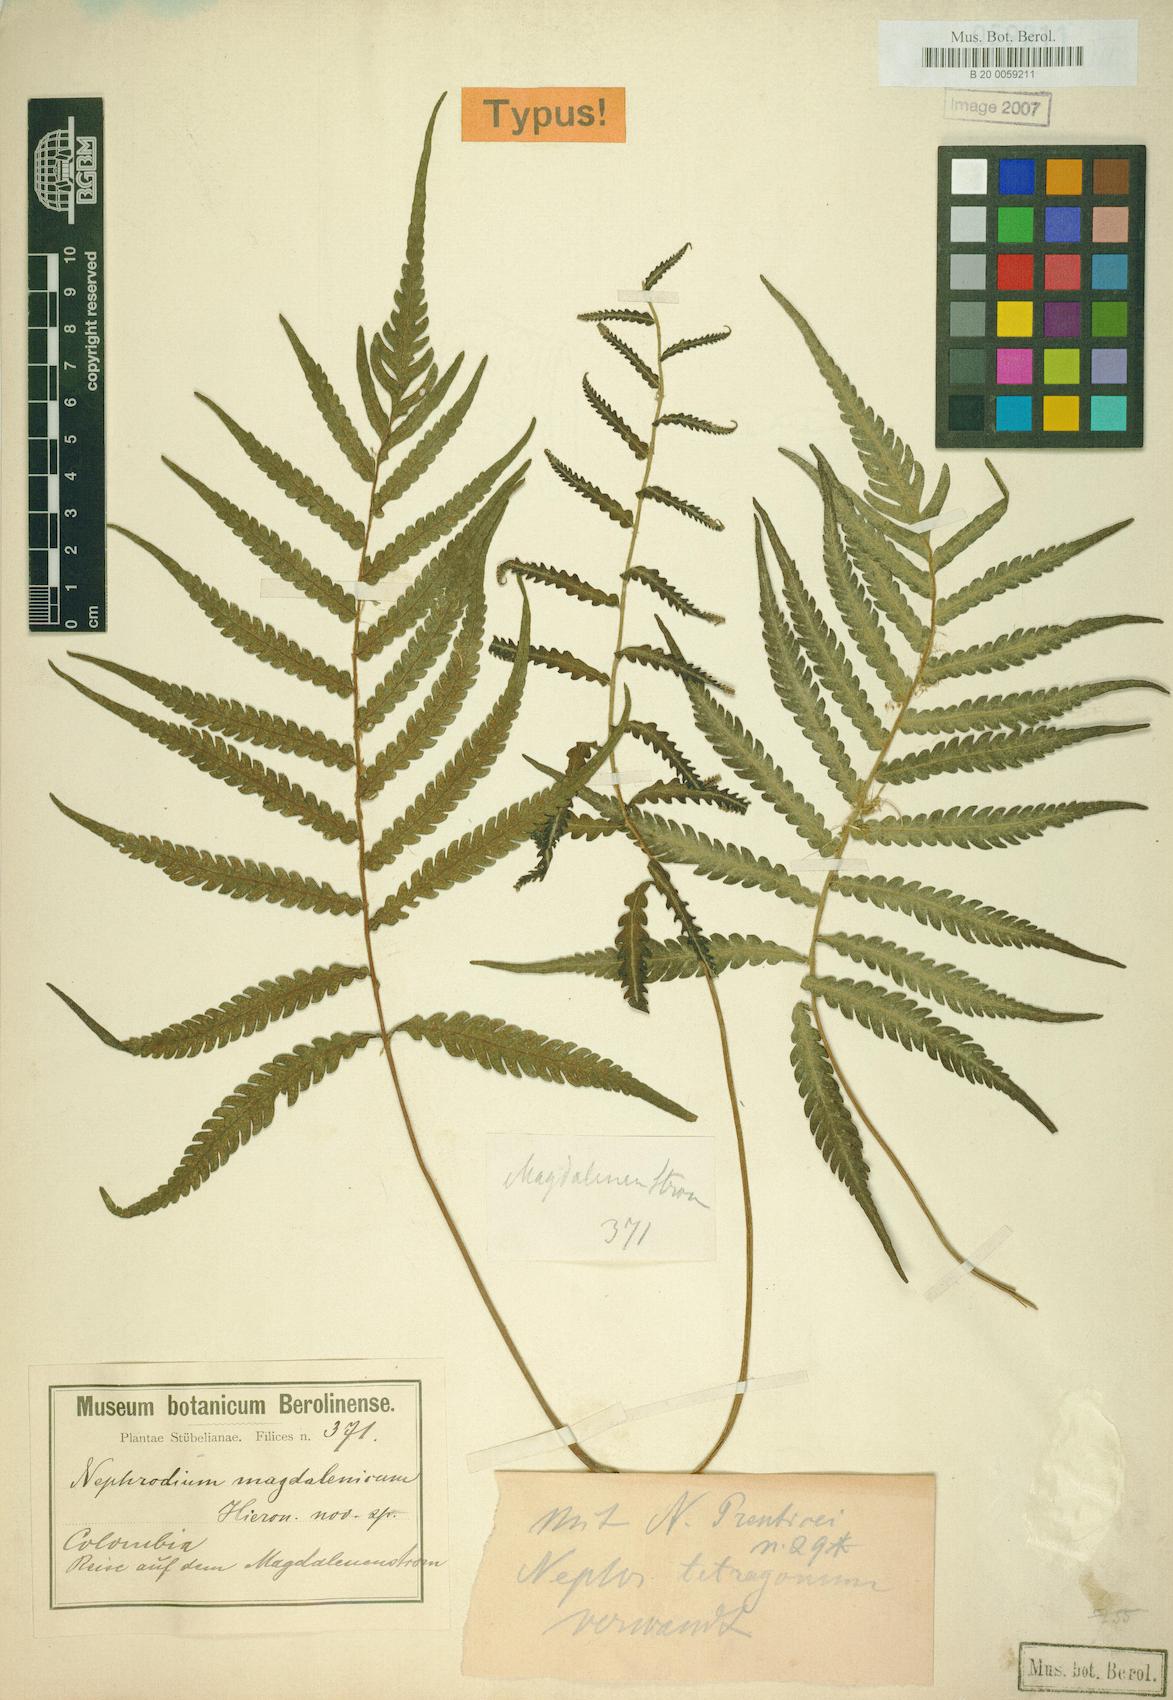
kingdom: Plantae
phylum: Tracheophyta
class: Polypodiopsida
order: Polypodiales
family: Dryopteridaceae
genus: Dryopteris
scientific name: Dryopteris magdalenica
